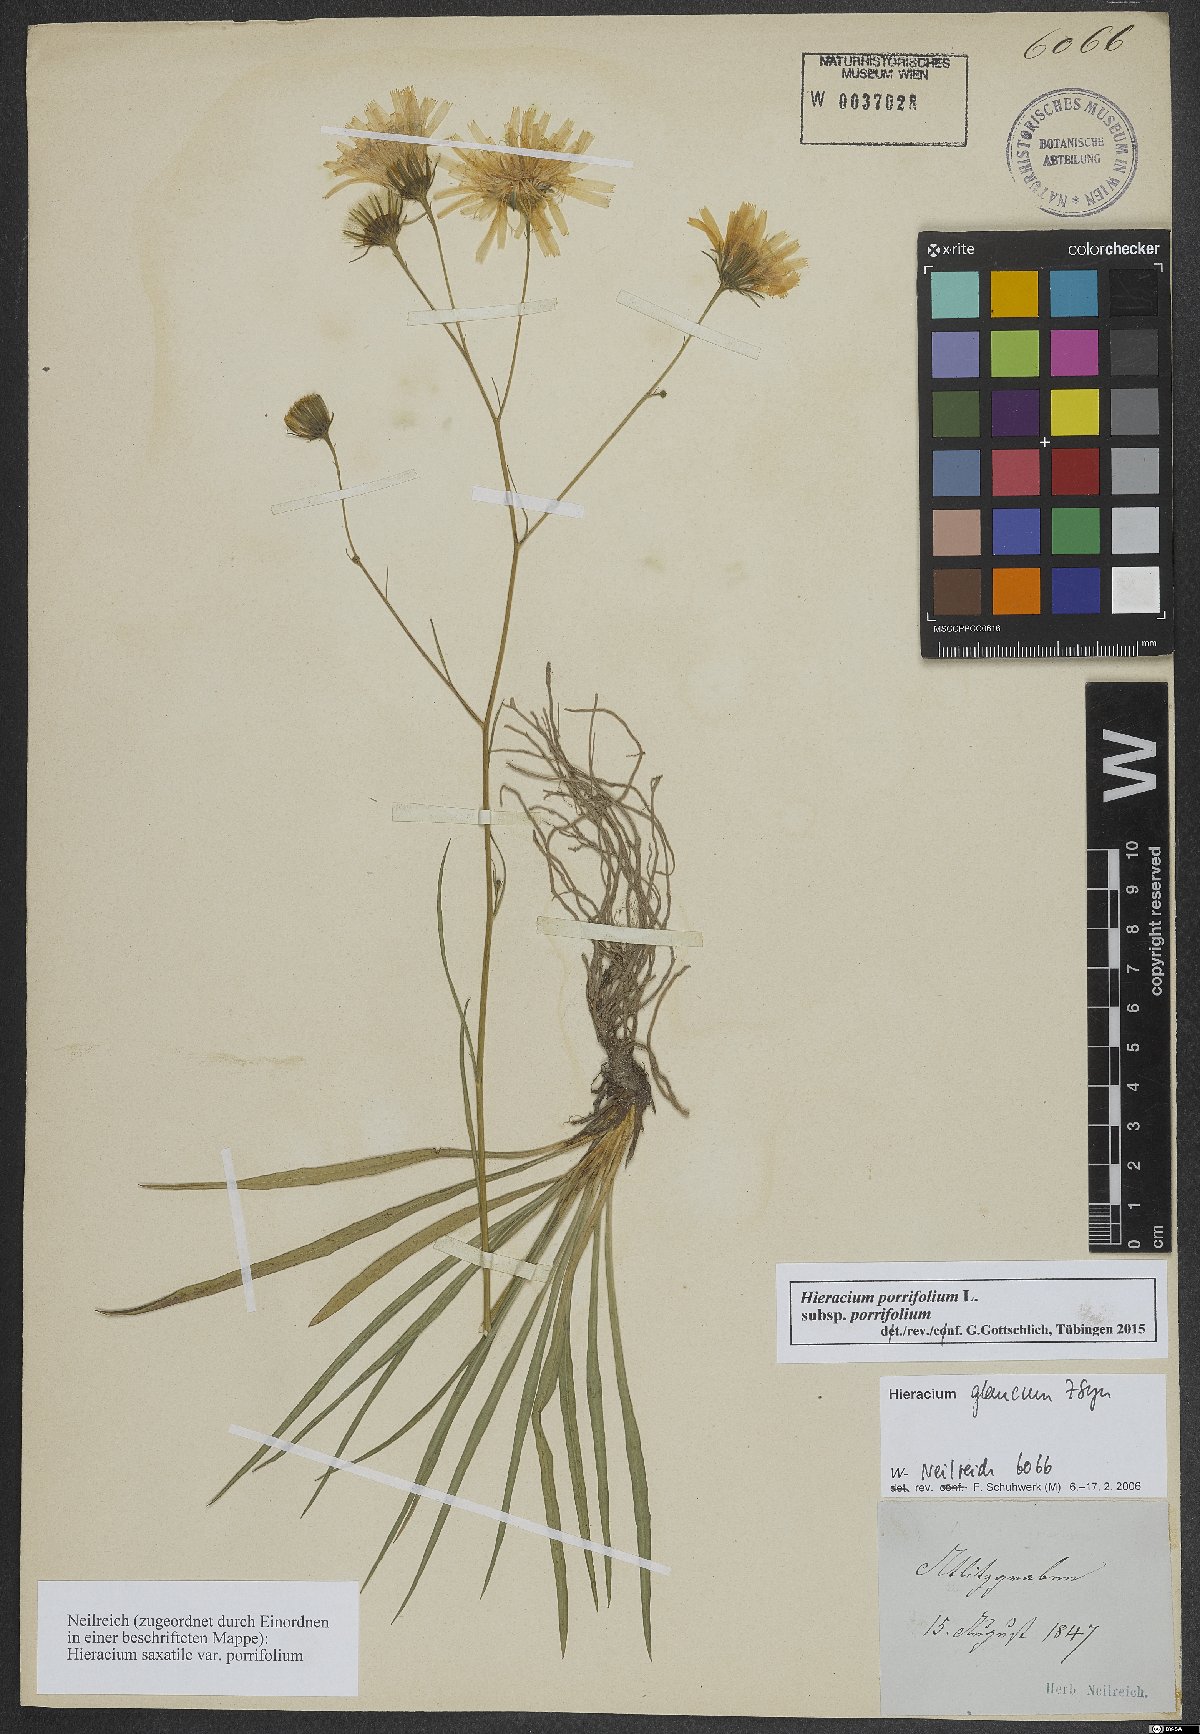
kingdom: Plantae
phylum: Tracheophyta
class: Magnoliopsida
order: Asterales
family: Asteraceae
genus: Hieracium
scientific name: Hieracium porrifolium
